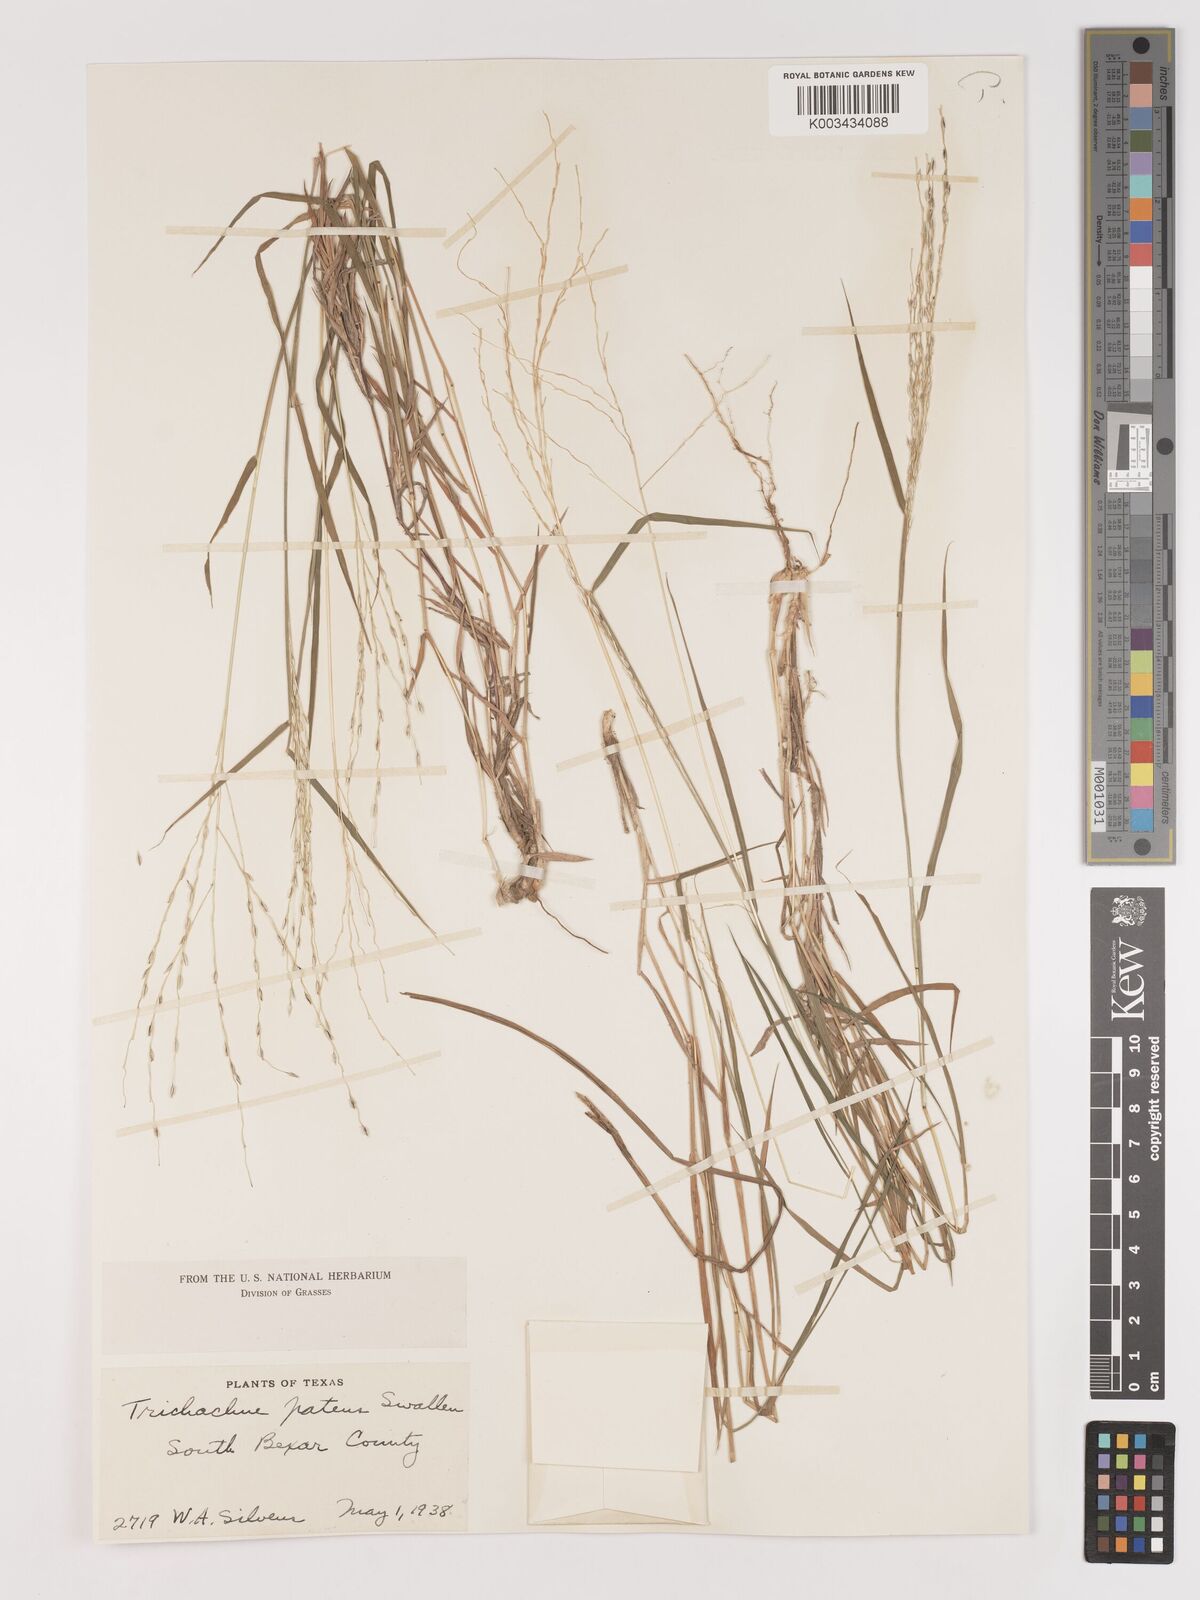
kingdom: Plantae
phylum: Tracheophyta
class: Liliopsida
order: Poales
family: Poaceae
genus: Digitaria
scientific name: Digitaria patens
